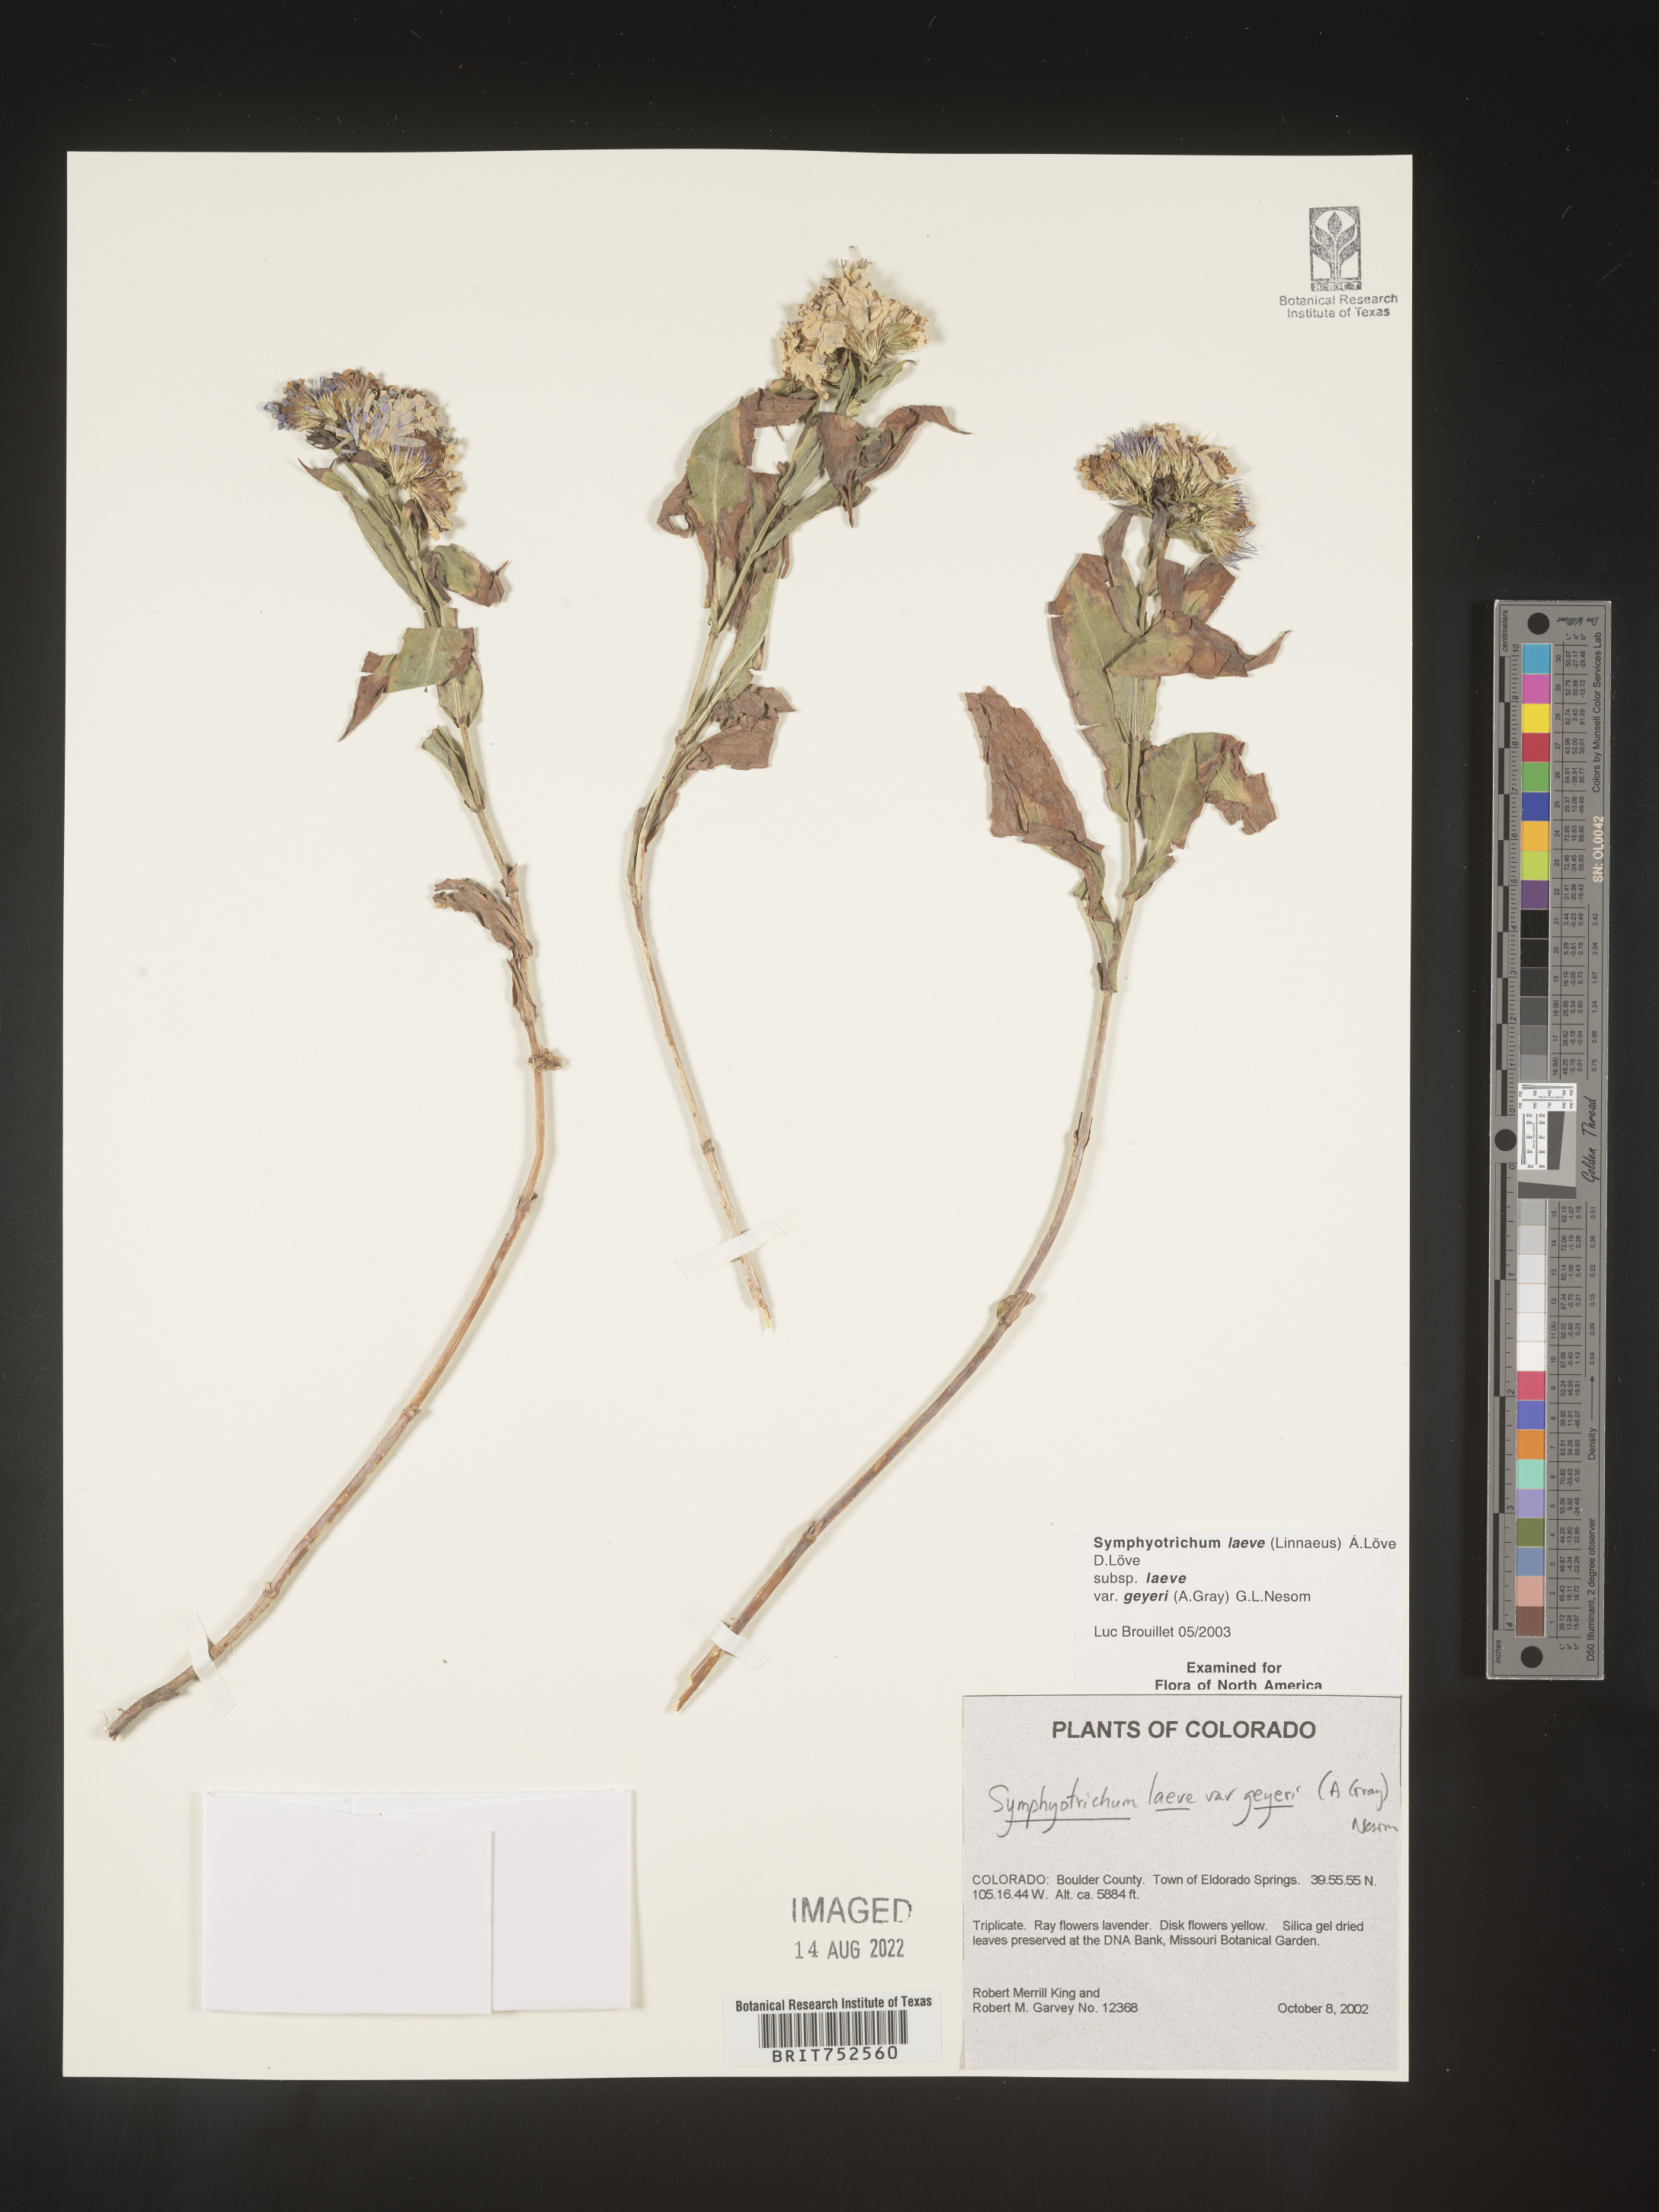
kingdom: Plantae
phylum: Tracheophyta
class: Magnoliopsida
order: Asterales
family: Asteraceae
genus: Symphyotrichum
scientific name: Symphyotrichum laeve
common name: Glaucous aster
